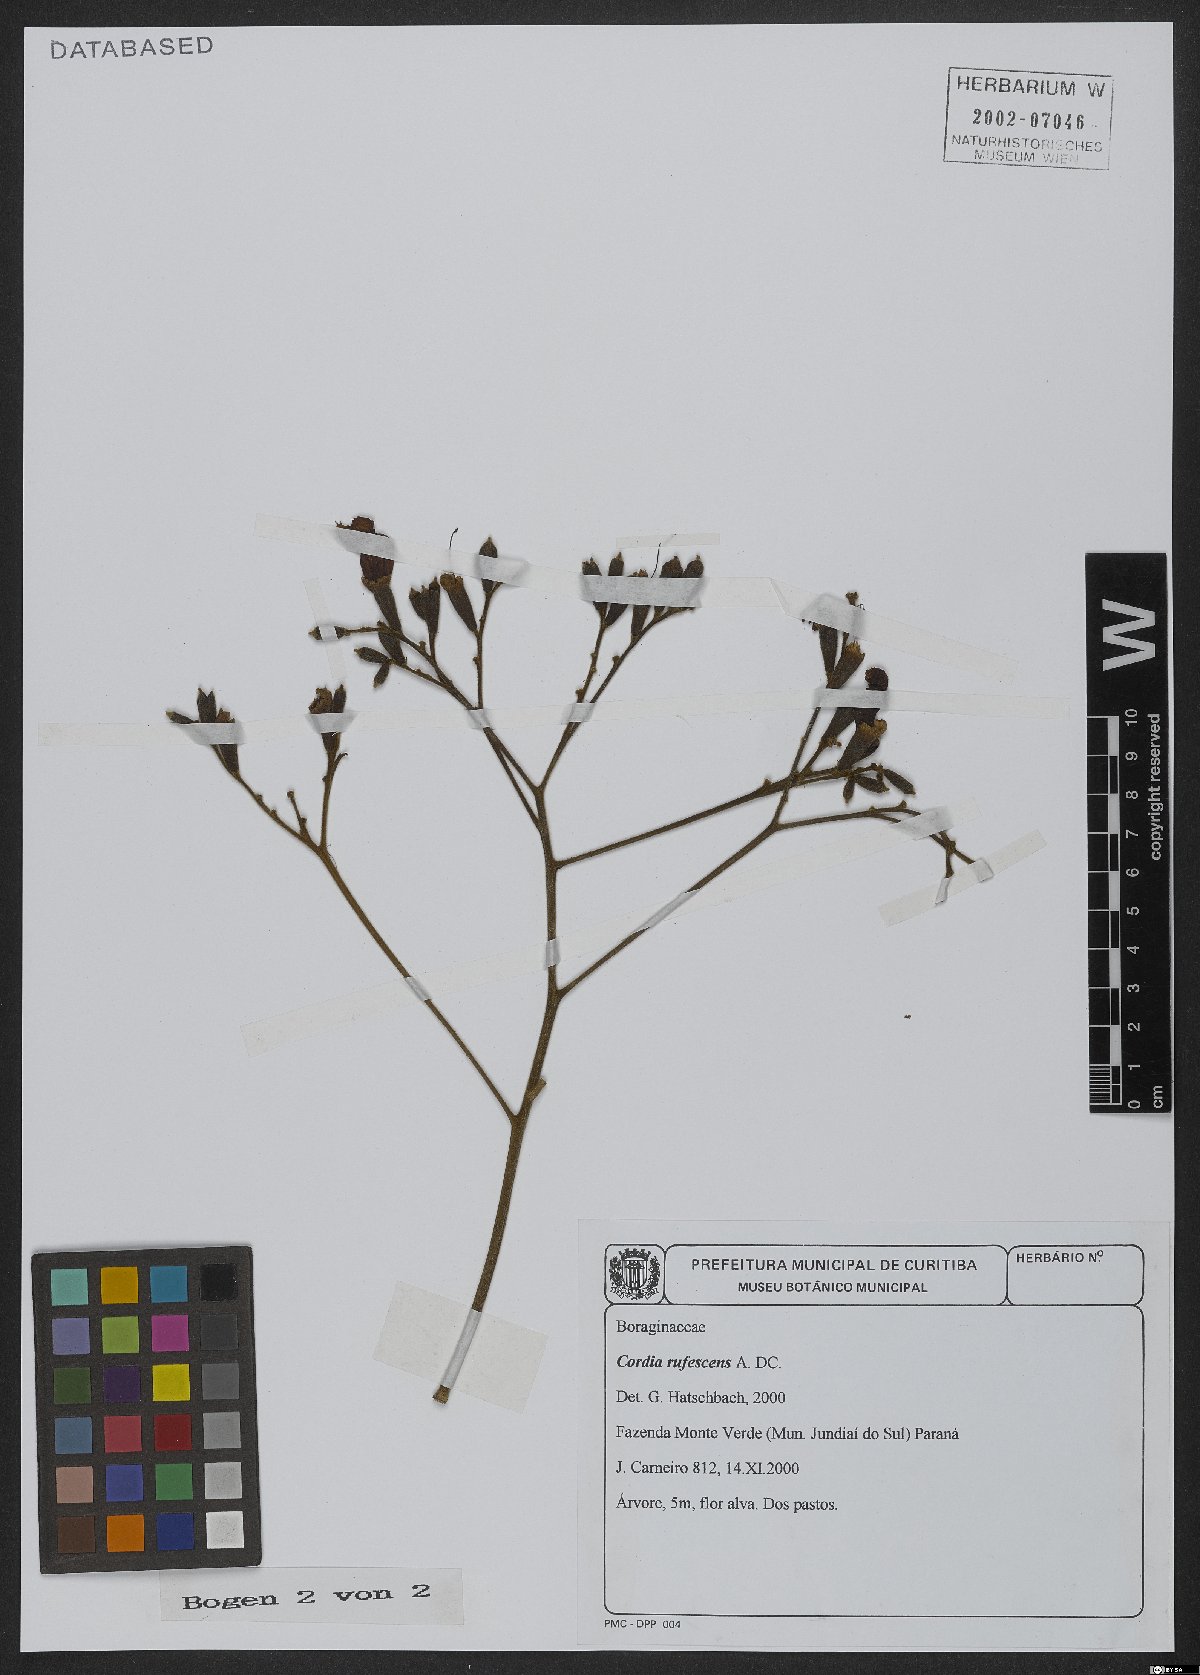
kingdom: Plantae
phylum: Tracheophyta
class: Magnoliopsida
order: Boraginales
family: Cordiaceae
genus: Cordia
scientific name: Cordia rufescens
